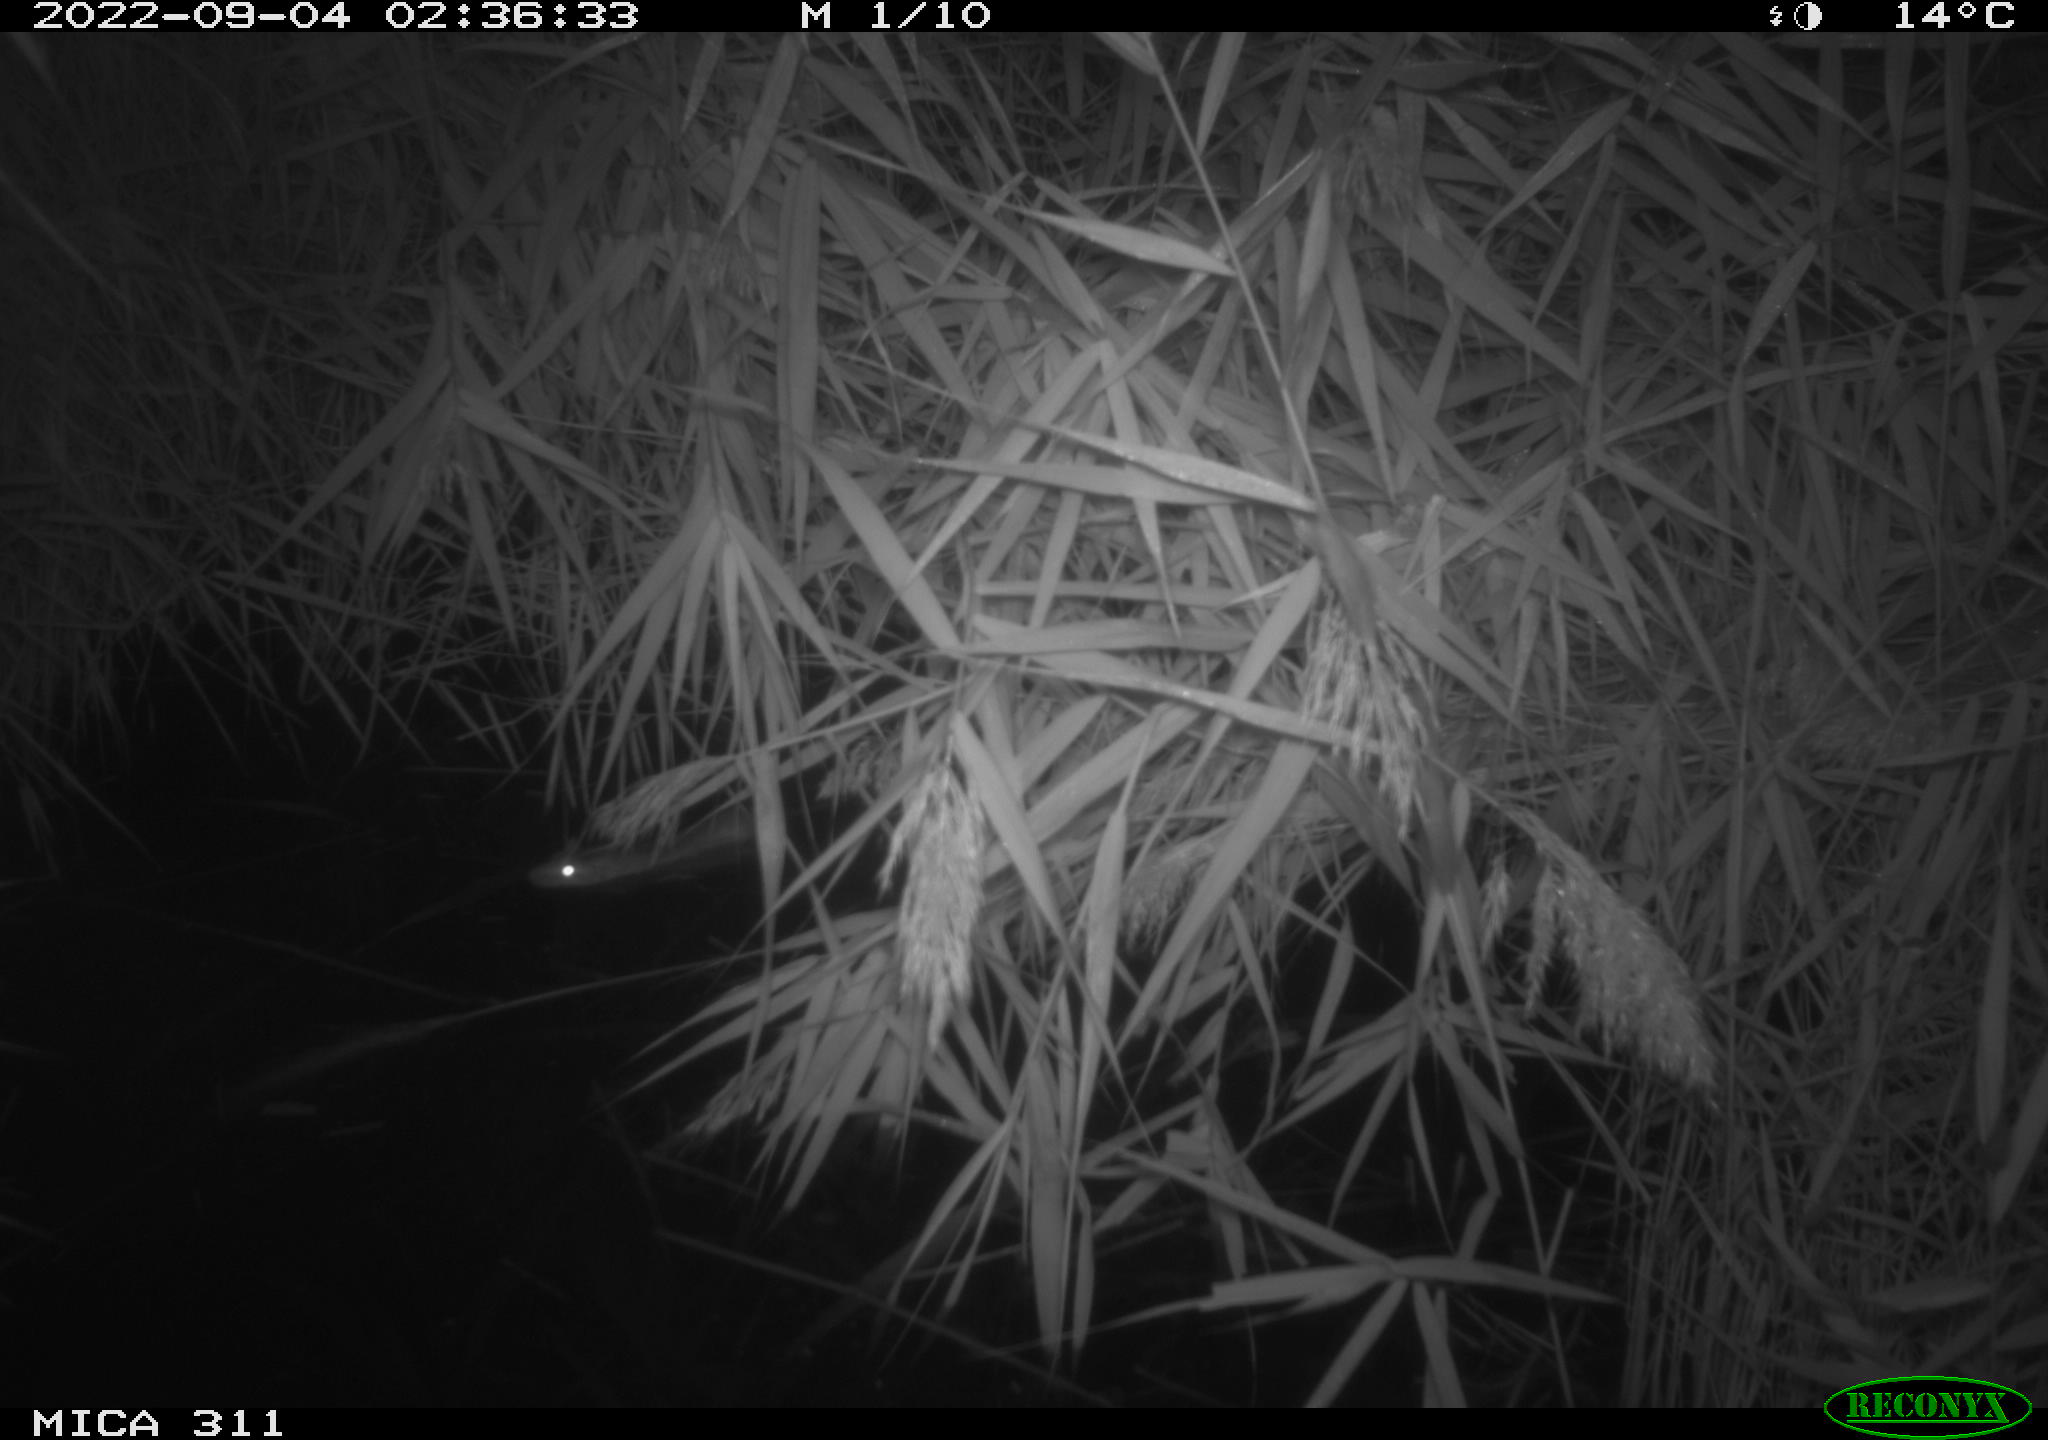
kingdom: Animalia
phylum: Chordata
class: Mammalia
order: Rodentia
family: Muridae
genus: Rattus
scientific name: Rattus norvegicus
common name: Brown rat
